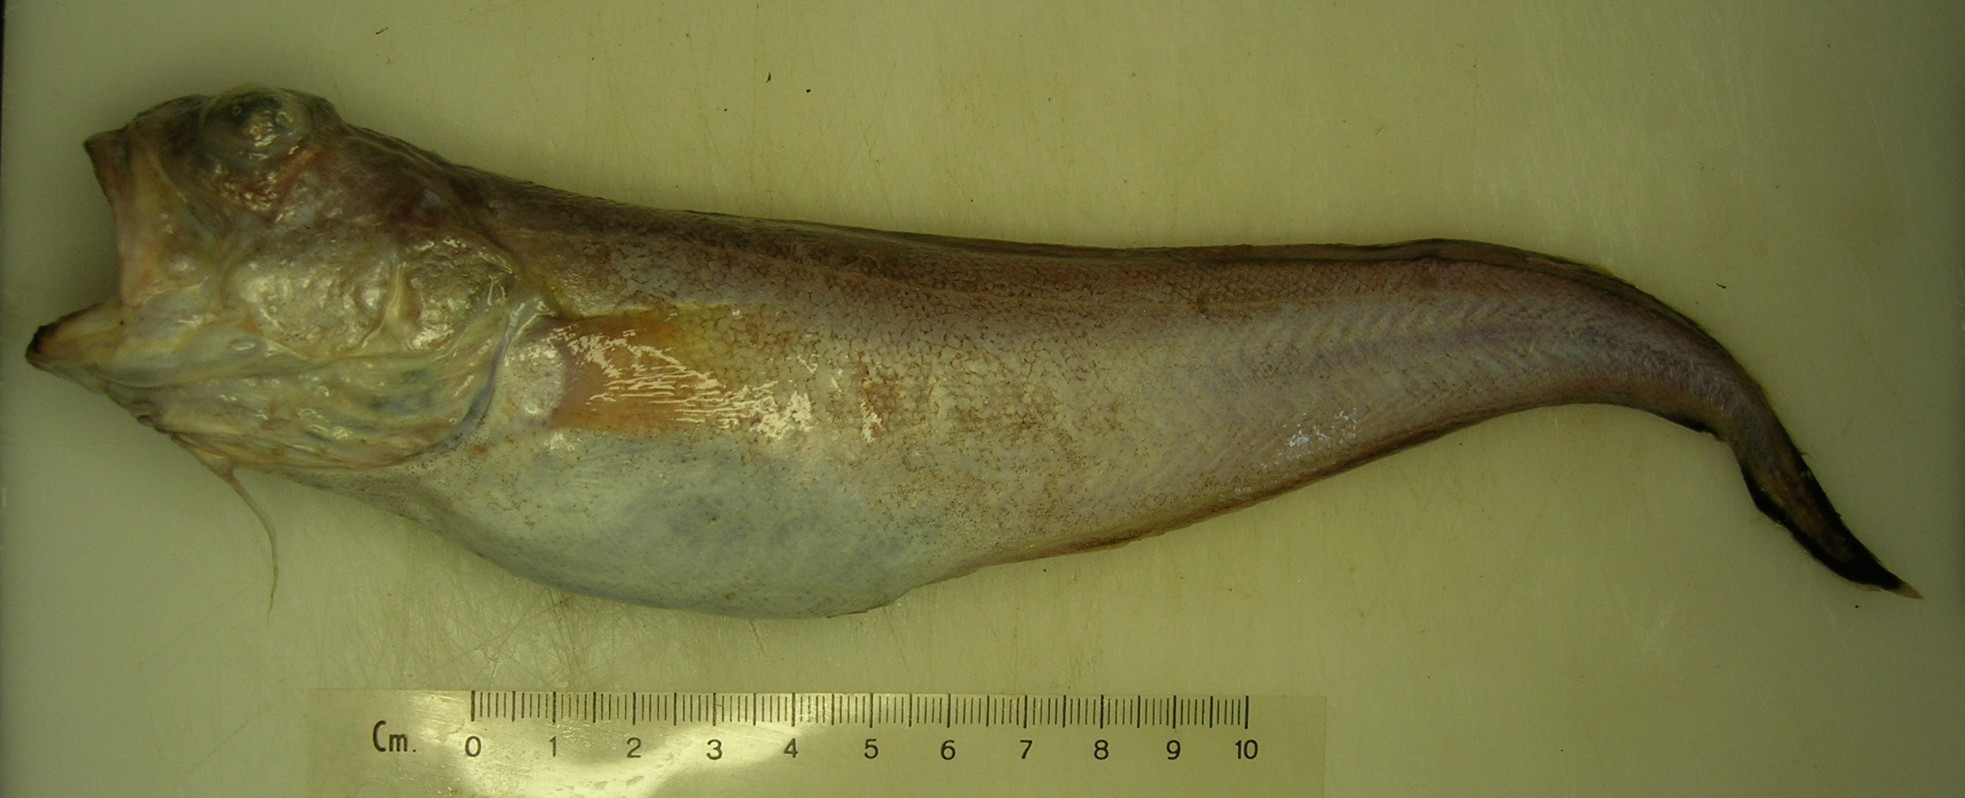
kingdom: Animalia
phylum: Chordata
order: Ophidiiformes
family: Ophidiidae
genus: Hoplobrotula
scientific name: Hoplobrotula gnathopus
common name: False kingklip
